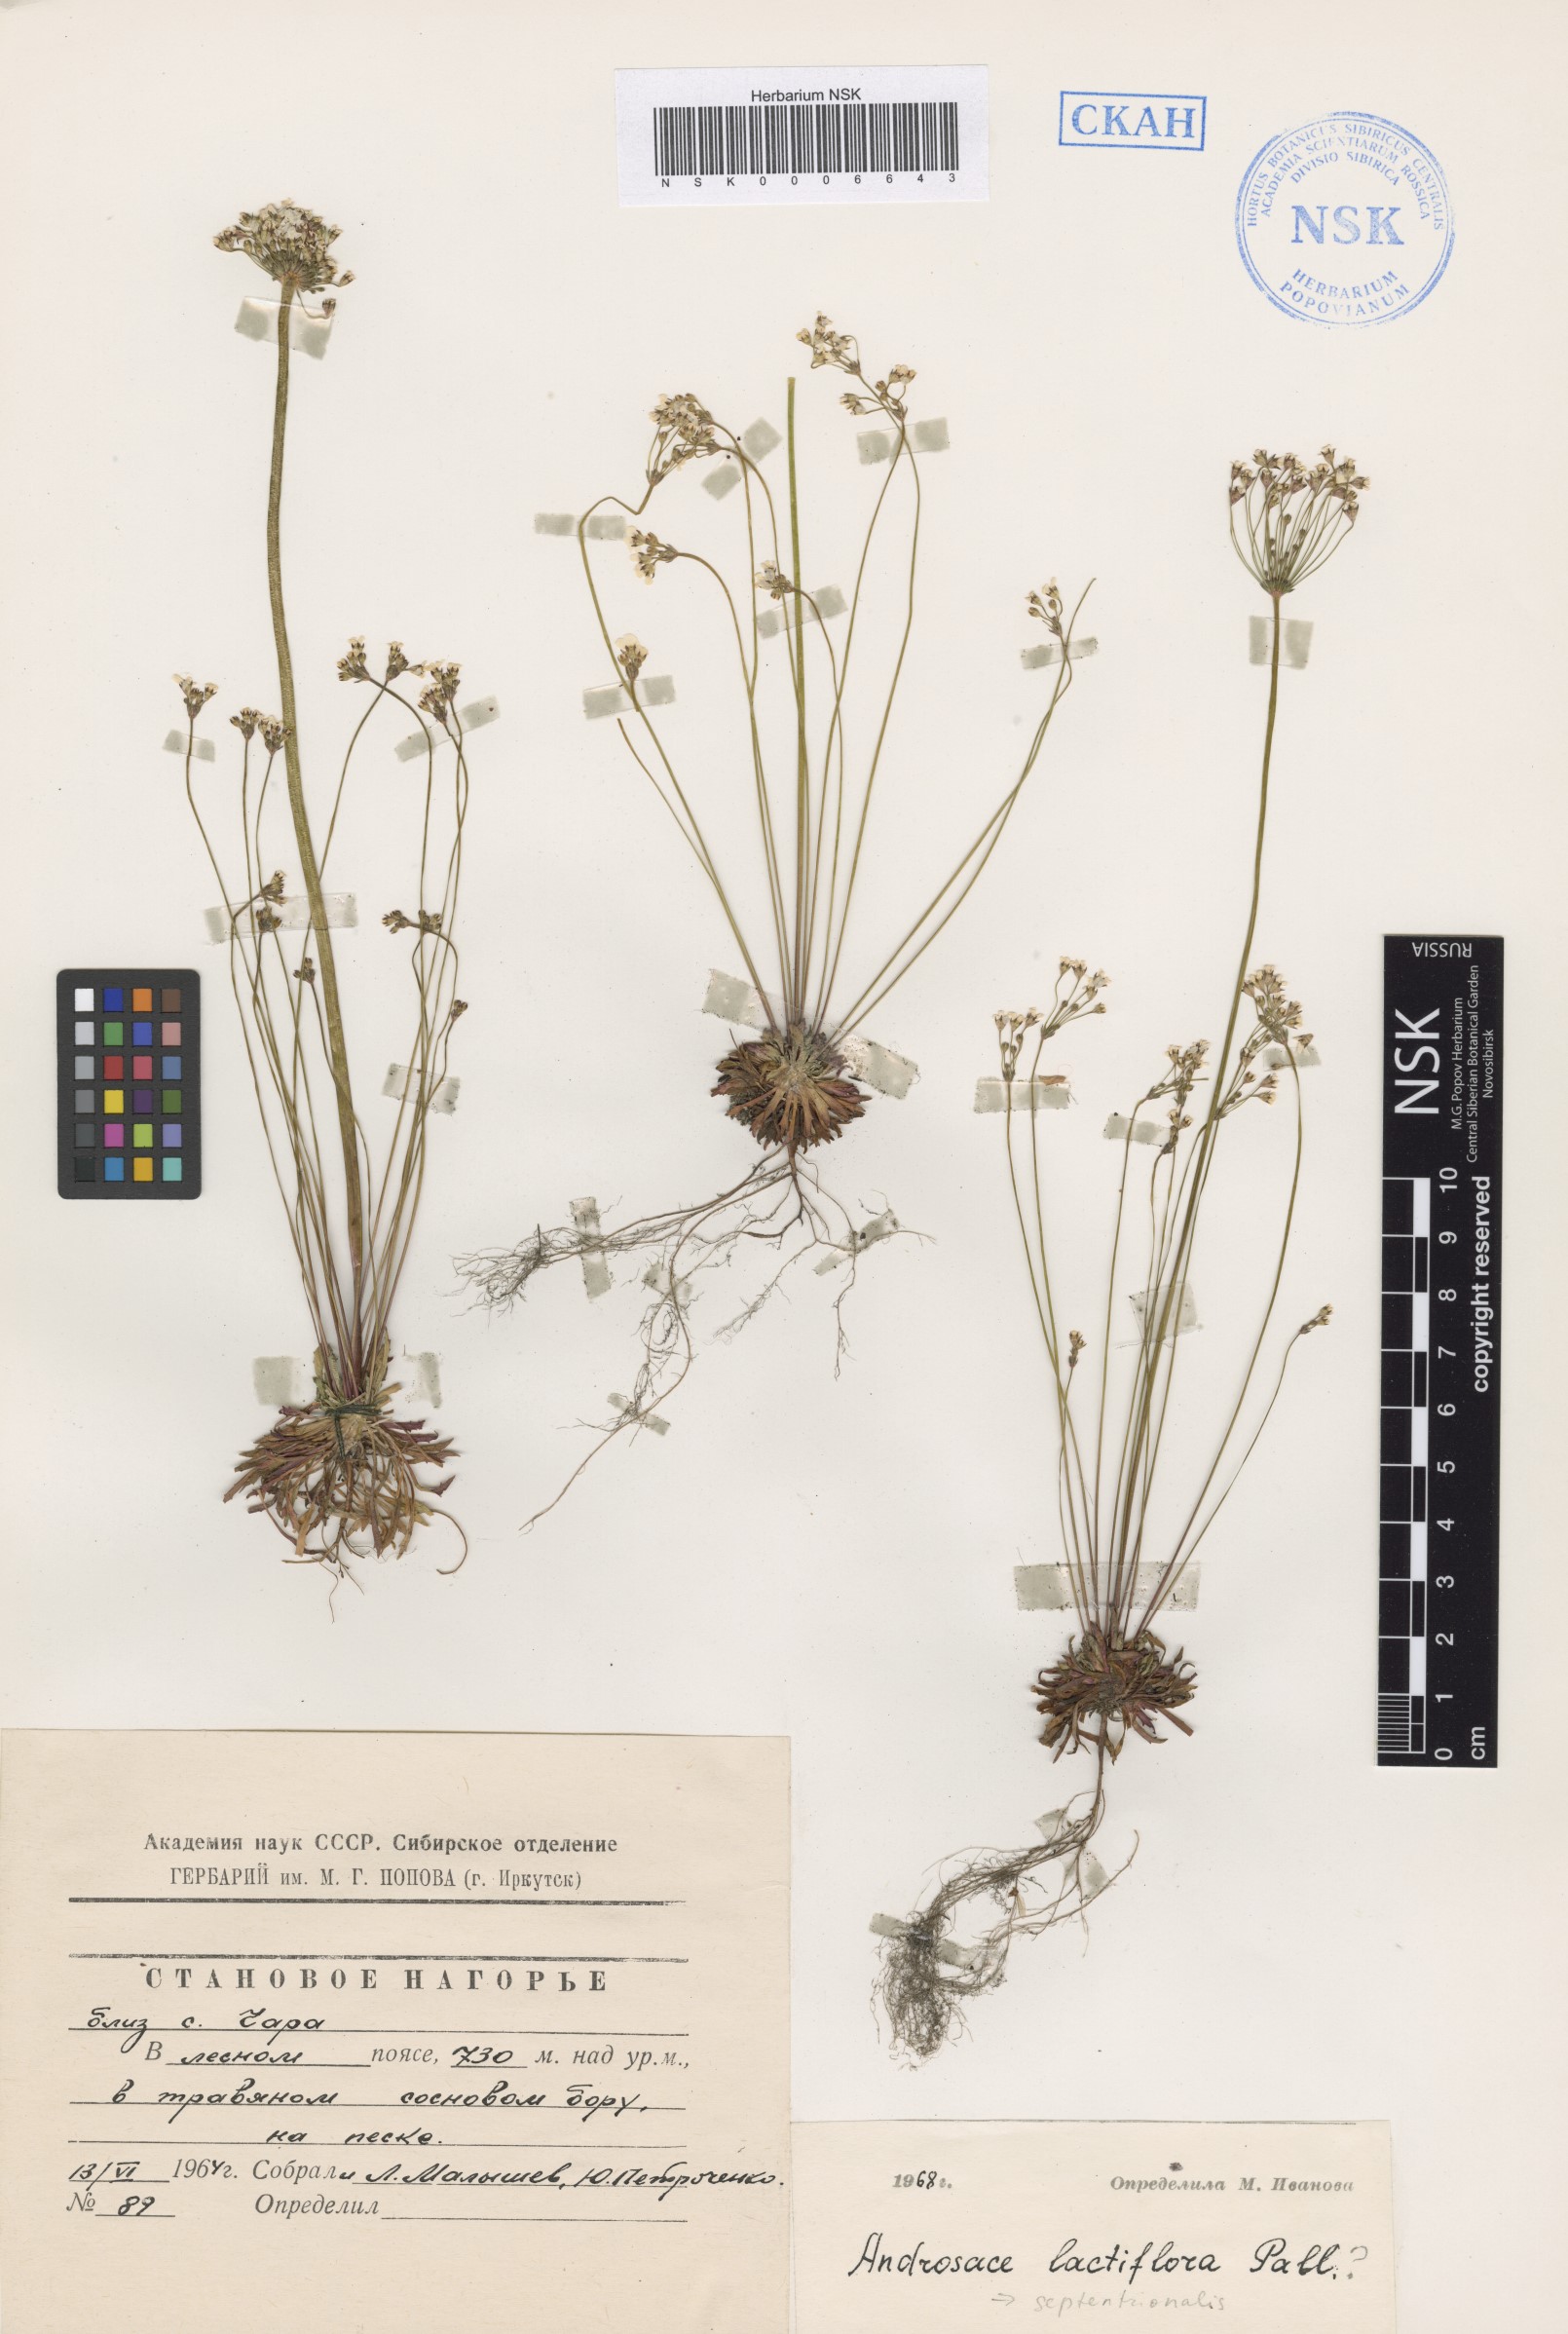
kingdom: Plantae
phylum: Tracheophyta
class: Magnoliopsida
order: Ericales
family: Primulaceae
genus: Androsace
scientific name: Androsace lactiflora
